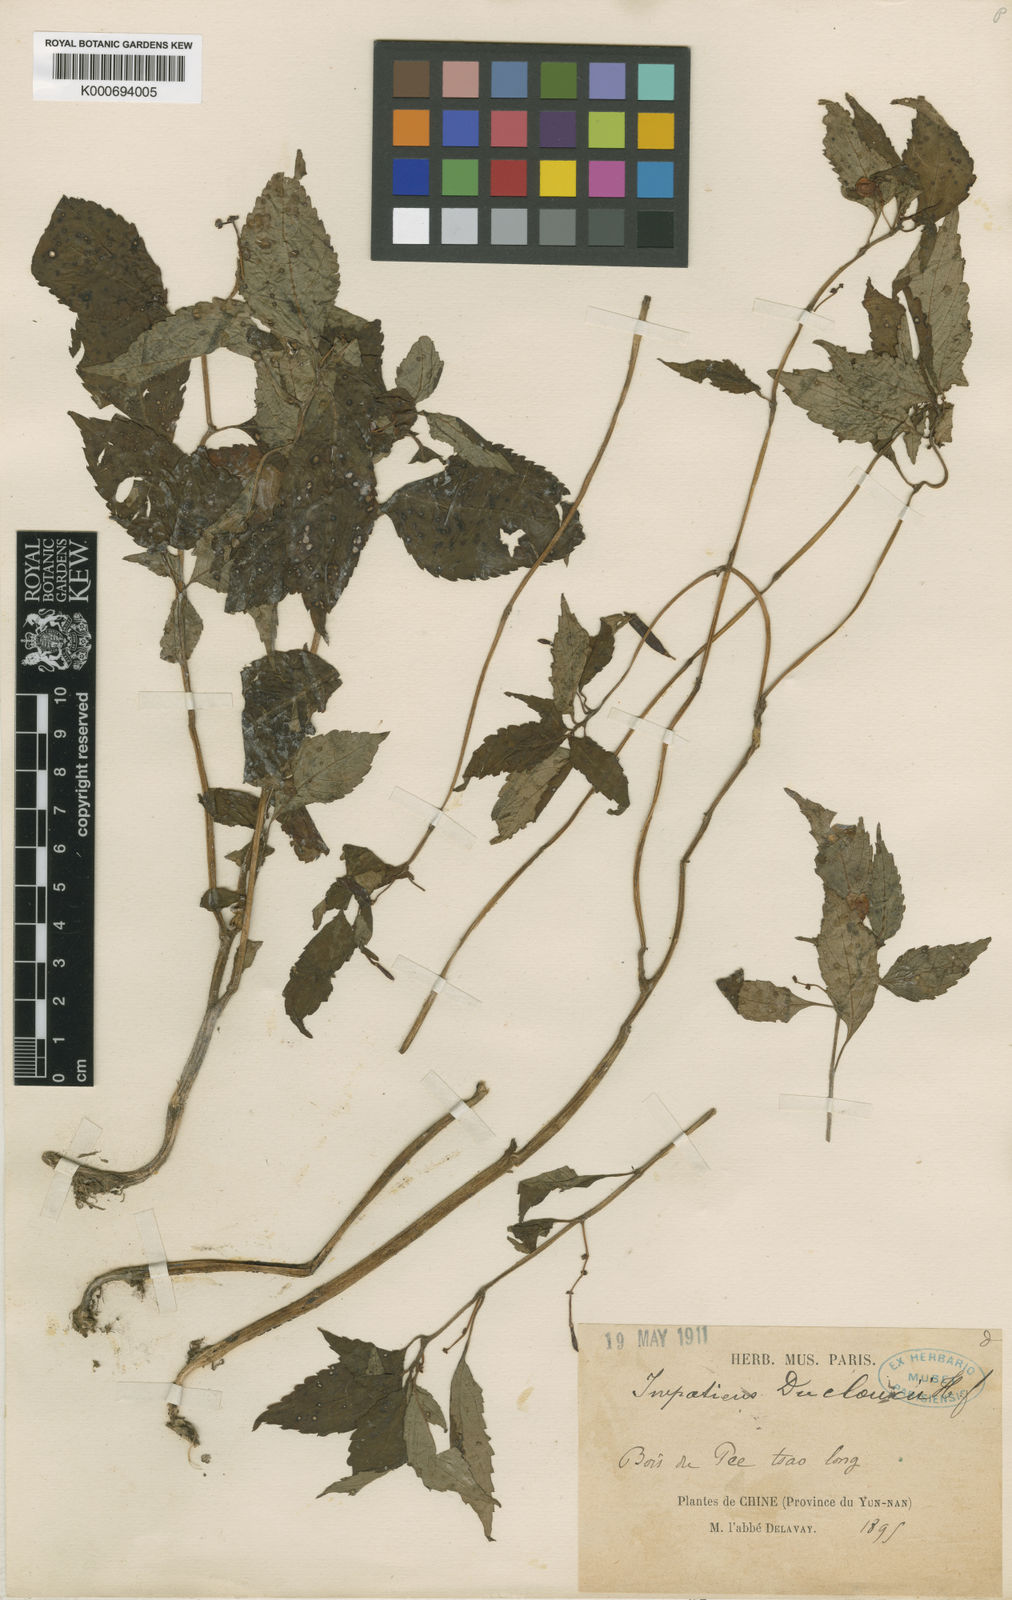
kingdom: Plantae
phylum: Tracheophyta
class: Magnoliopsida
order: Ericales
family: Balsaminaceae
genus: Impatiens
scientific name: Impatiens duclouxii
